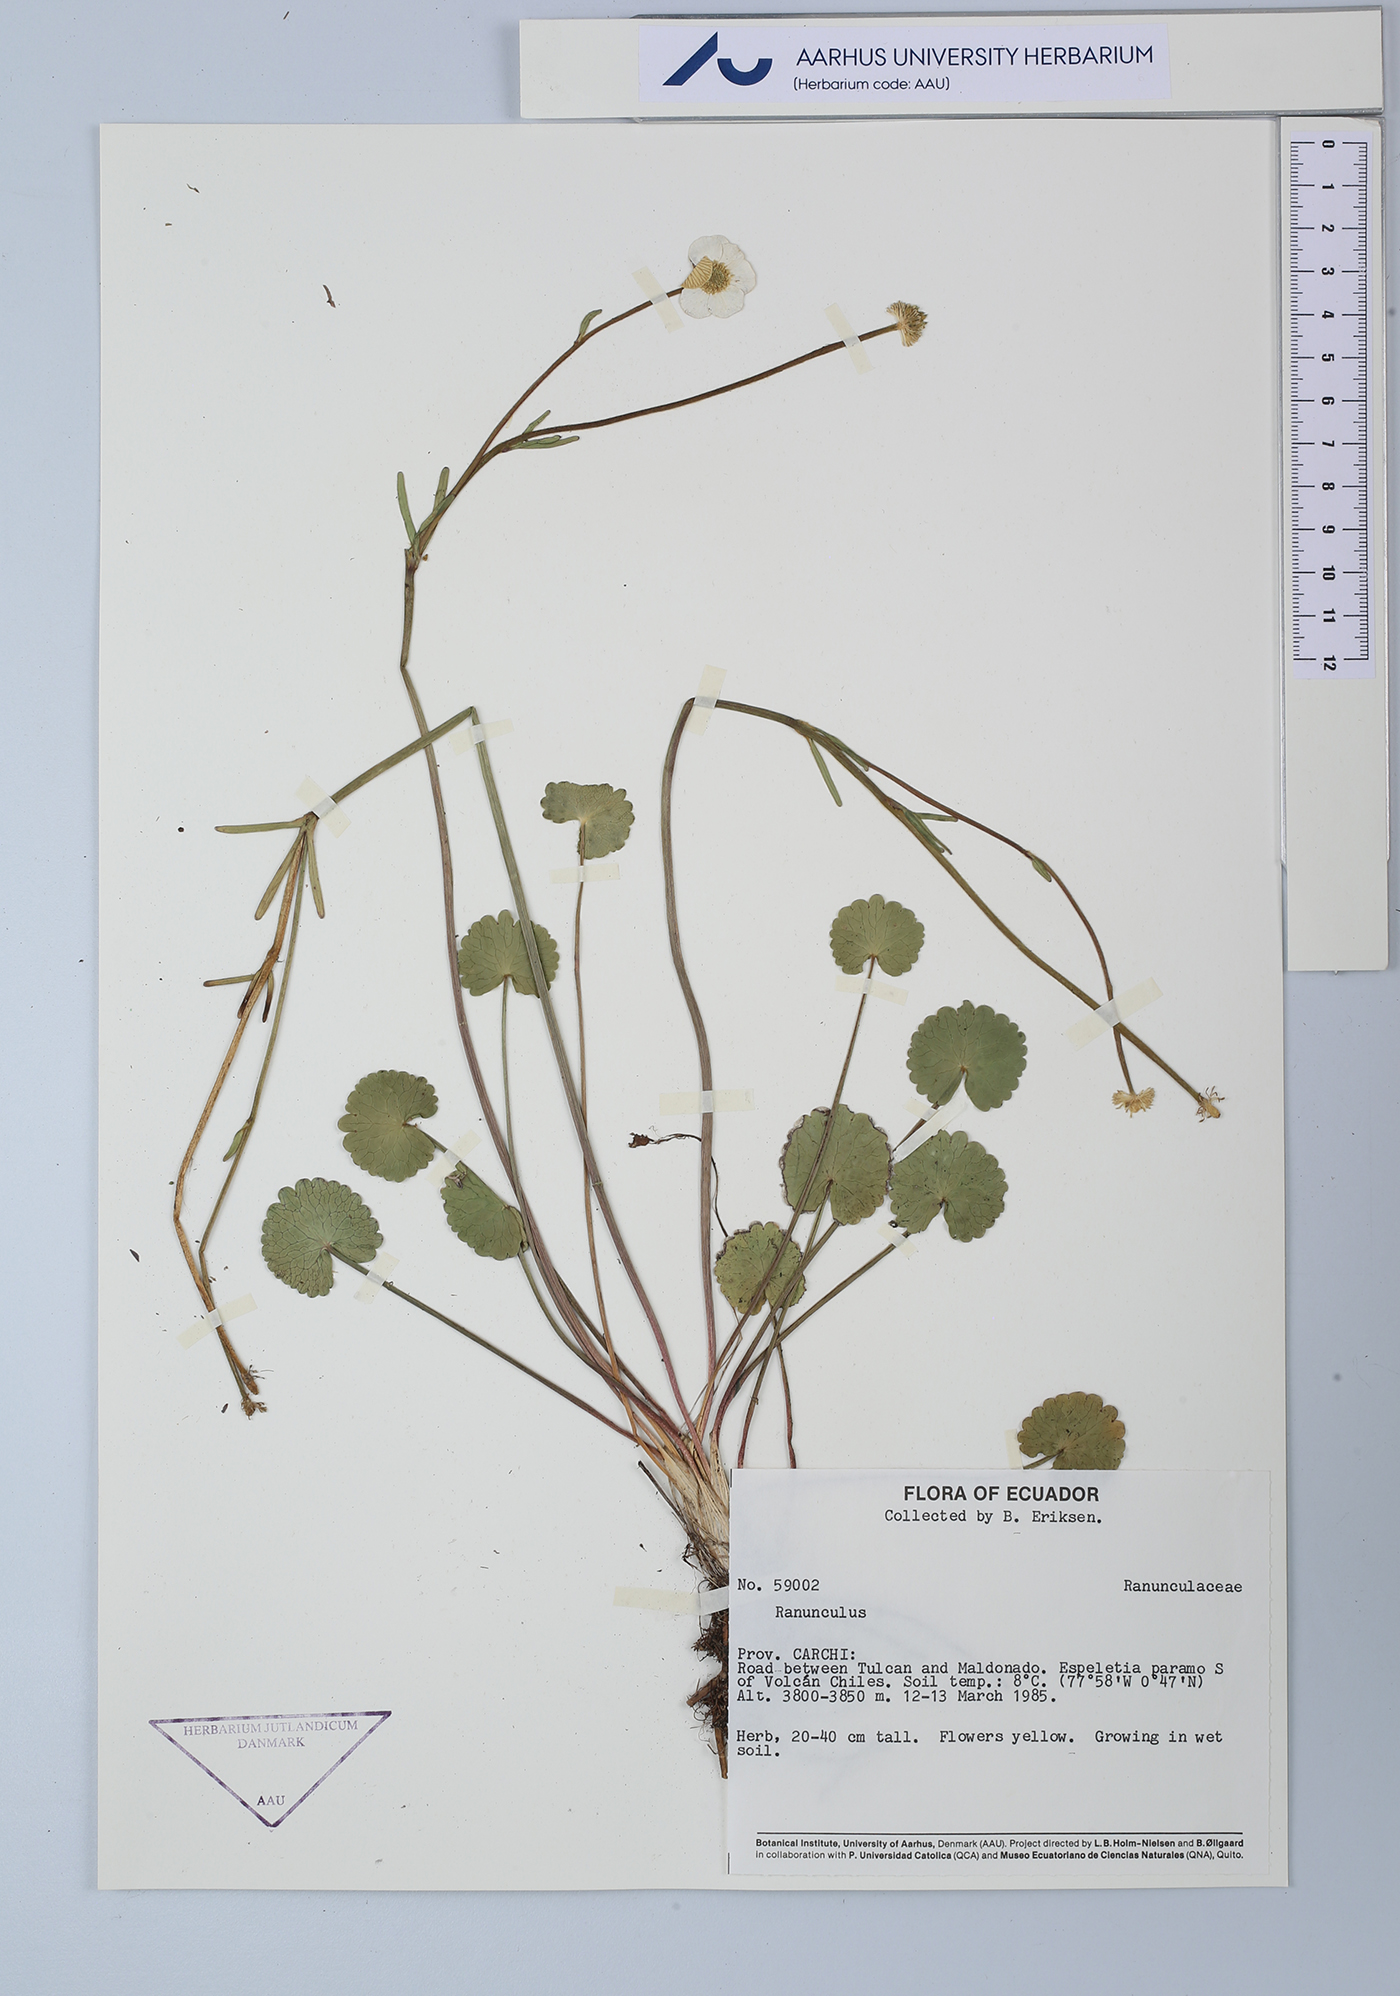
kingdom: Plantae
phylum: Tracheophyta
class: Magnoliopsida
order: Ranunculales
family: Ranunculaceae
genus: Ranunculus
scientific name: Ranunculus
